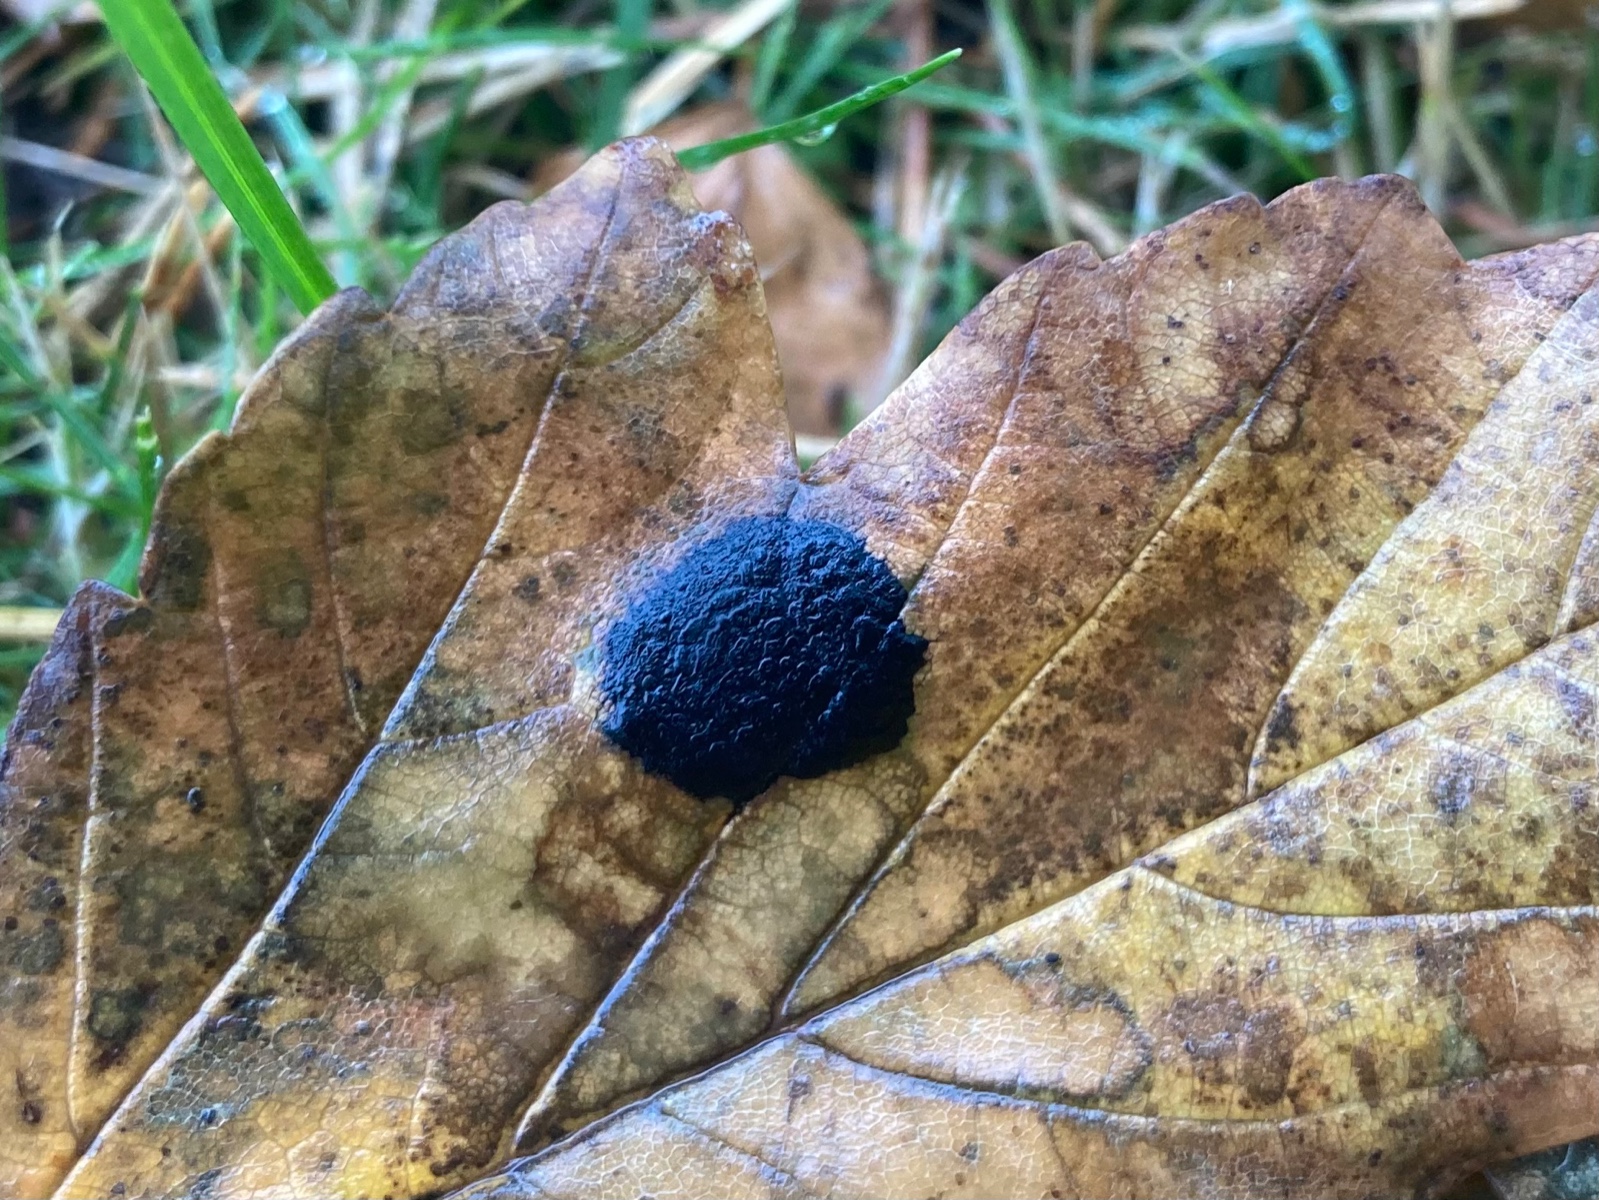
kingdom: Fungi
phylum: Ascomycota
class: Leotiomycetes
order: Rhytismatales
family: Rhytismataceae
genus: Rhytisma
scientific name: Rhytisma acerinum
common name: ahorn-rynkeplet
